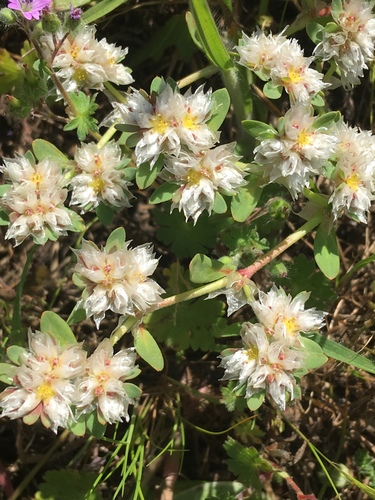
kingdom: Plantae
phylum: Tracheophyta
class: Magnoliopsida
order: Caryophyllales
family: Caryophyllaceae
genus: Paronychia
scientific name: Paronychia argentea
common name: Silver nailroot
